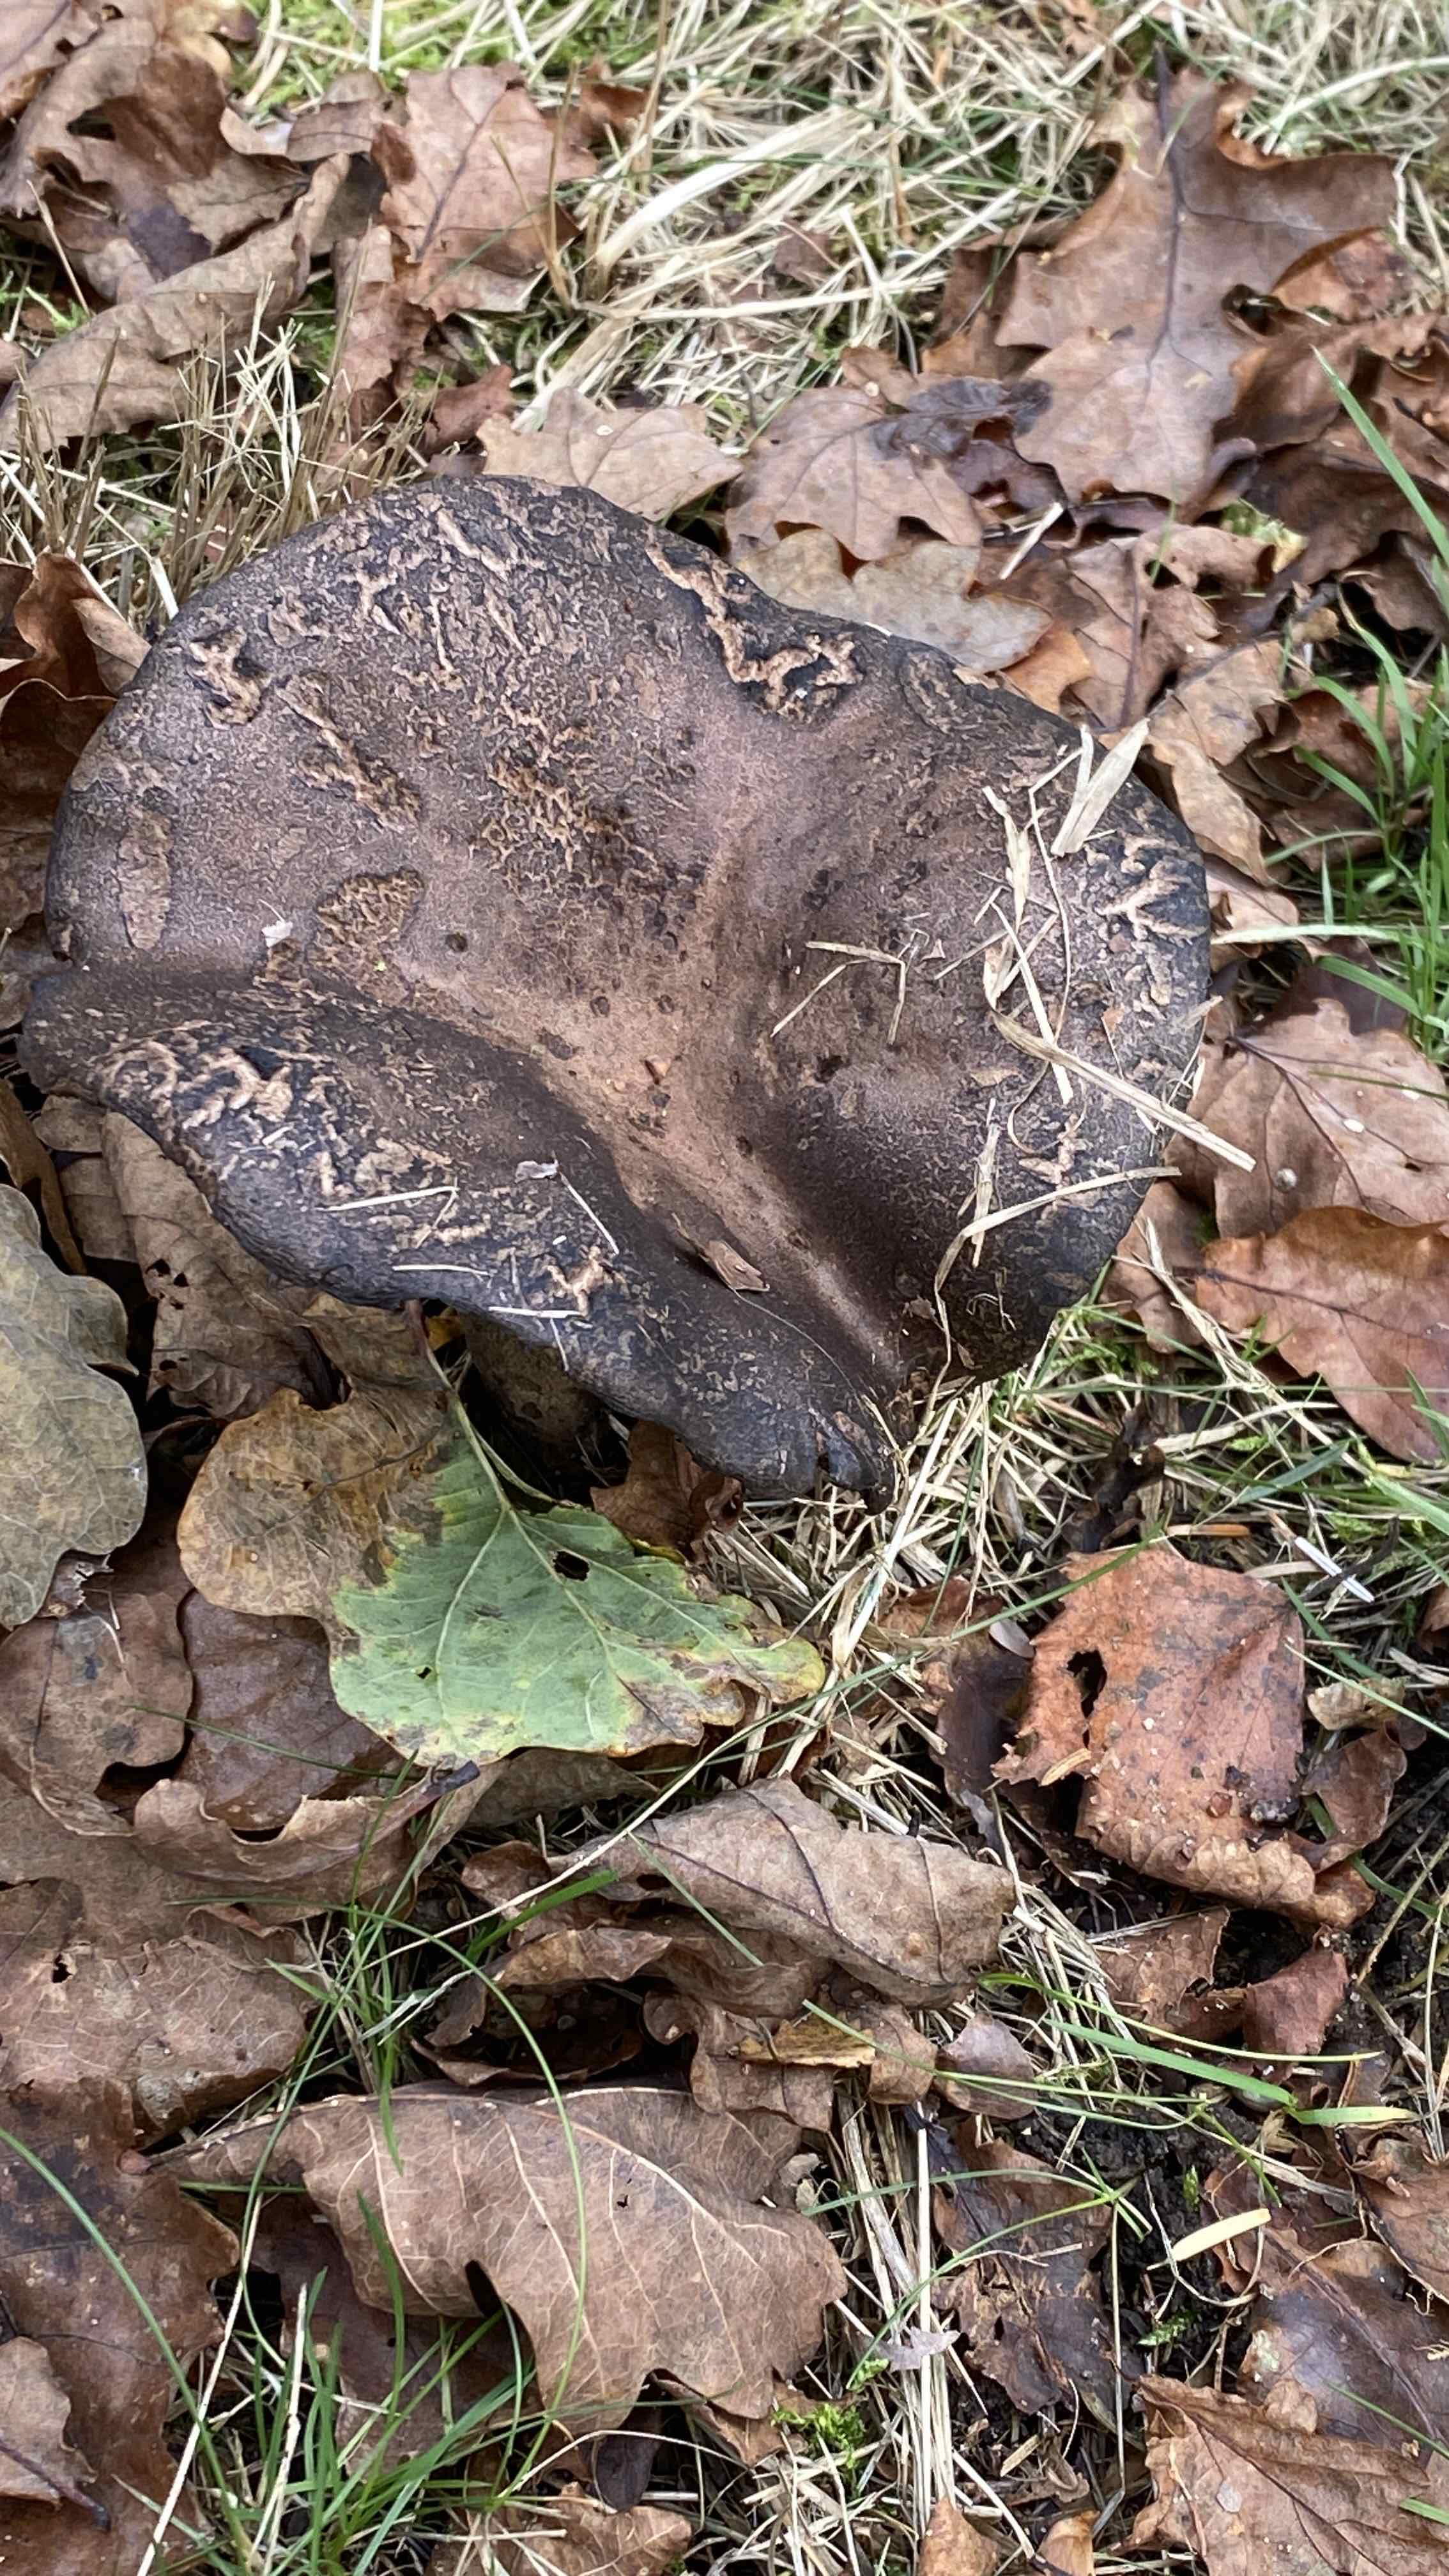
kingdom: Fungi
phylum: Basidiomycota
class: Agaricomycetes
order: Russulales
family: Russulaceae
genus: Russula
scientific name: Russula adusta
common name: sværtende skørhat
